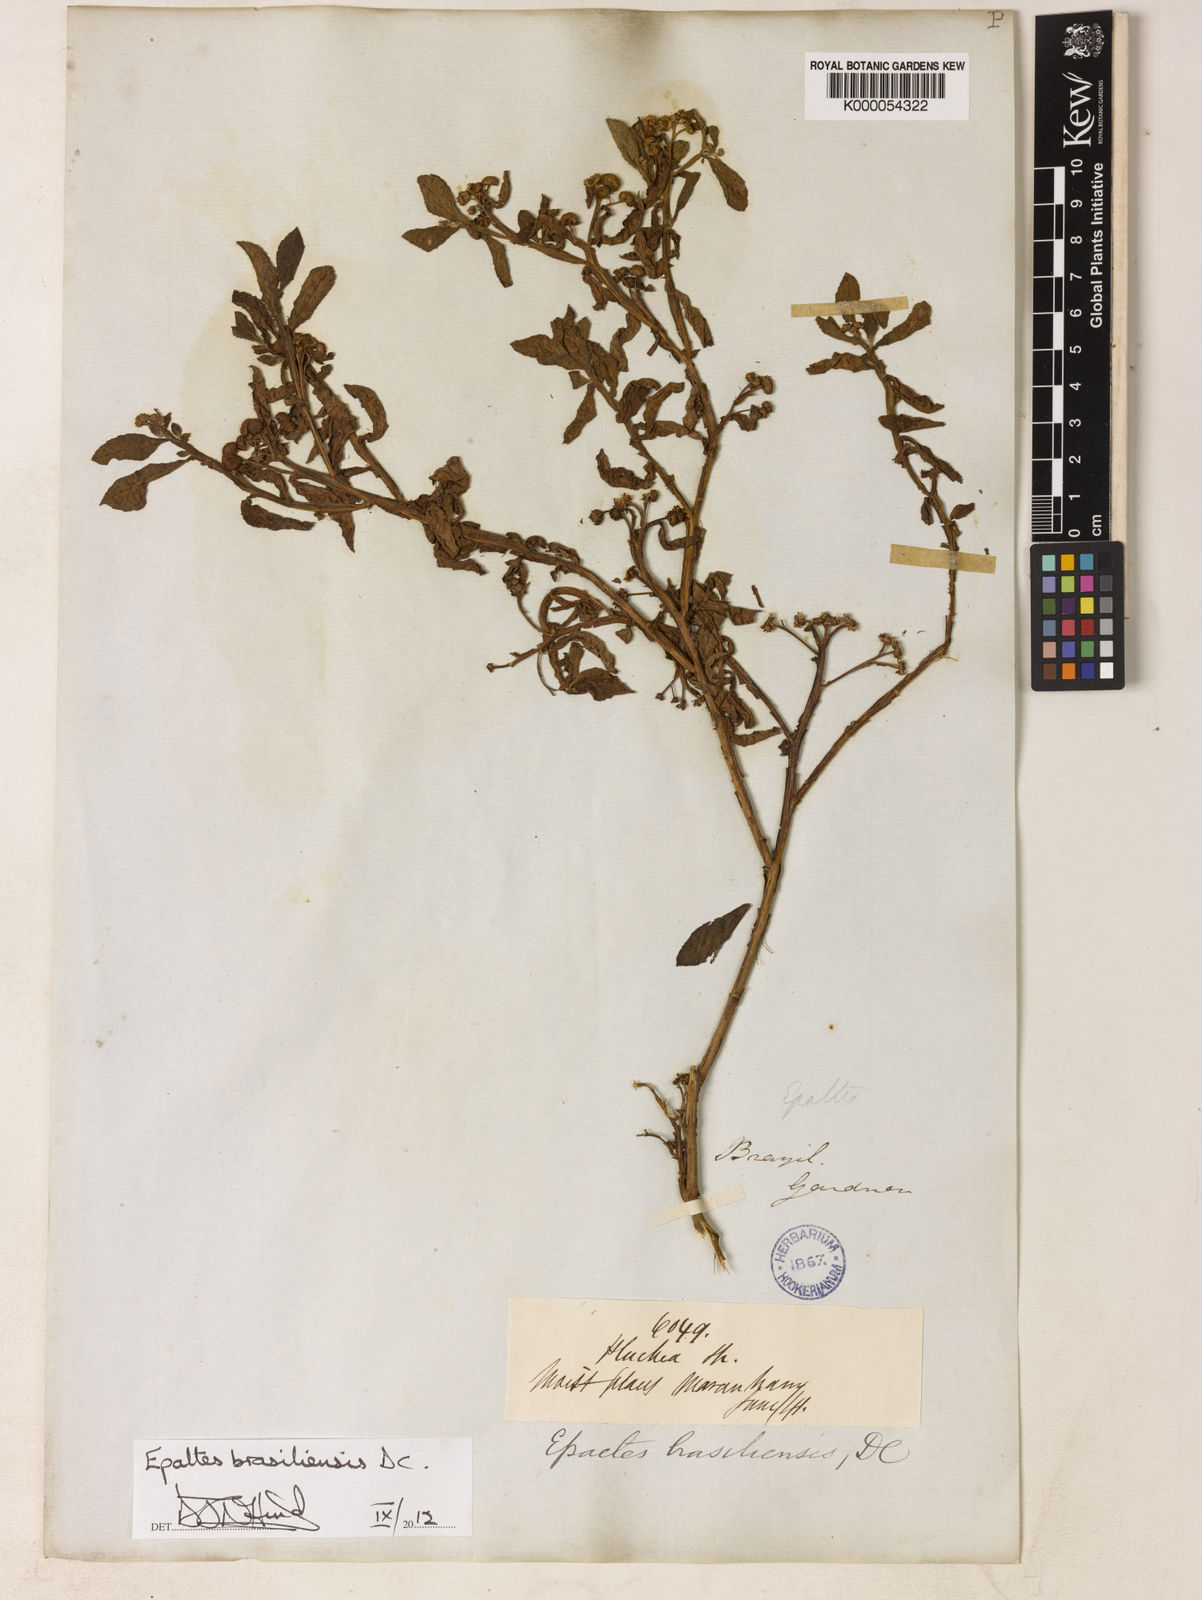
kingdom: Plantae
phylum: Tracheophyta
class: Magnoliopsida
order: Asterales
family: Asteraceae
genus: Epaltes
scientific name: Epaltes brasiliensis
